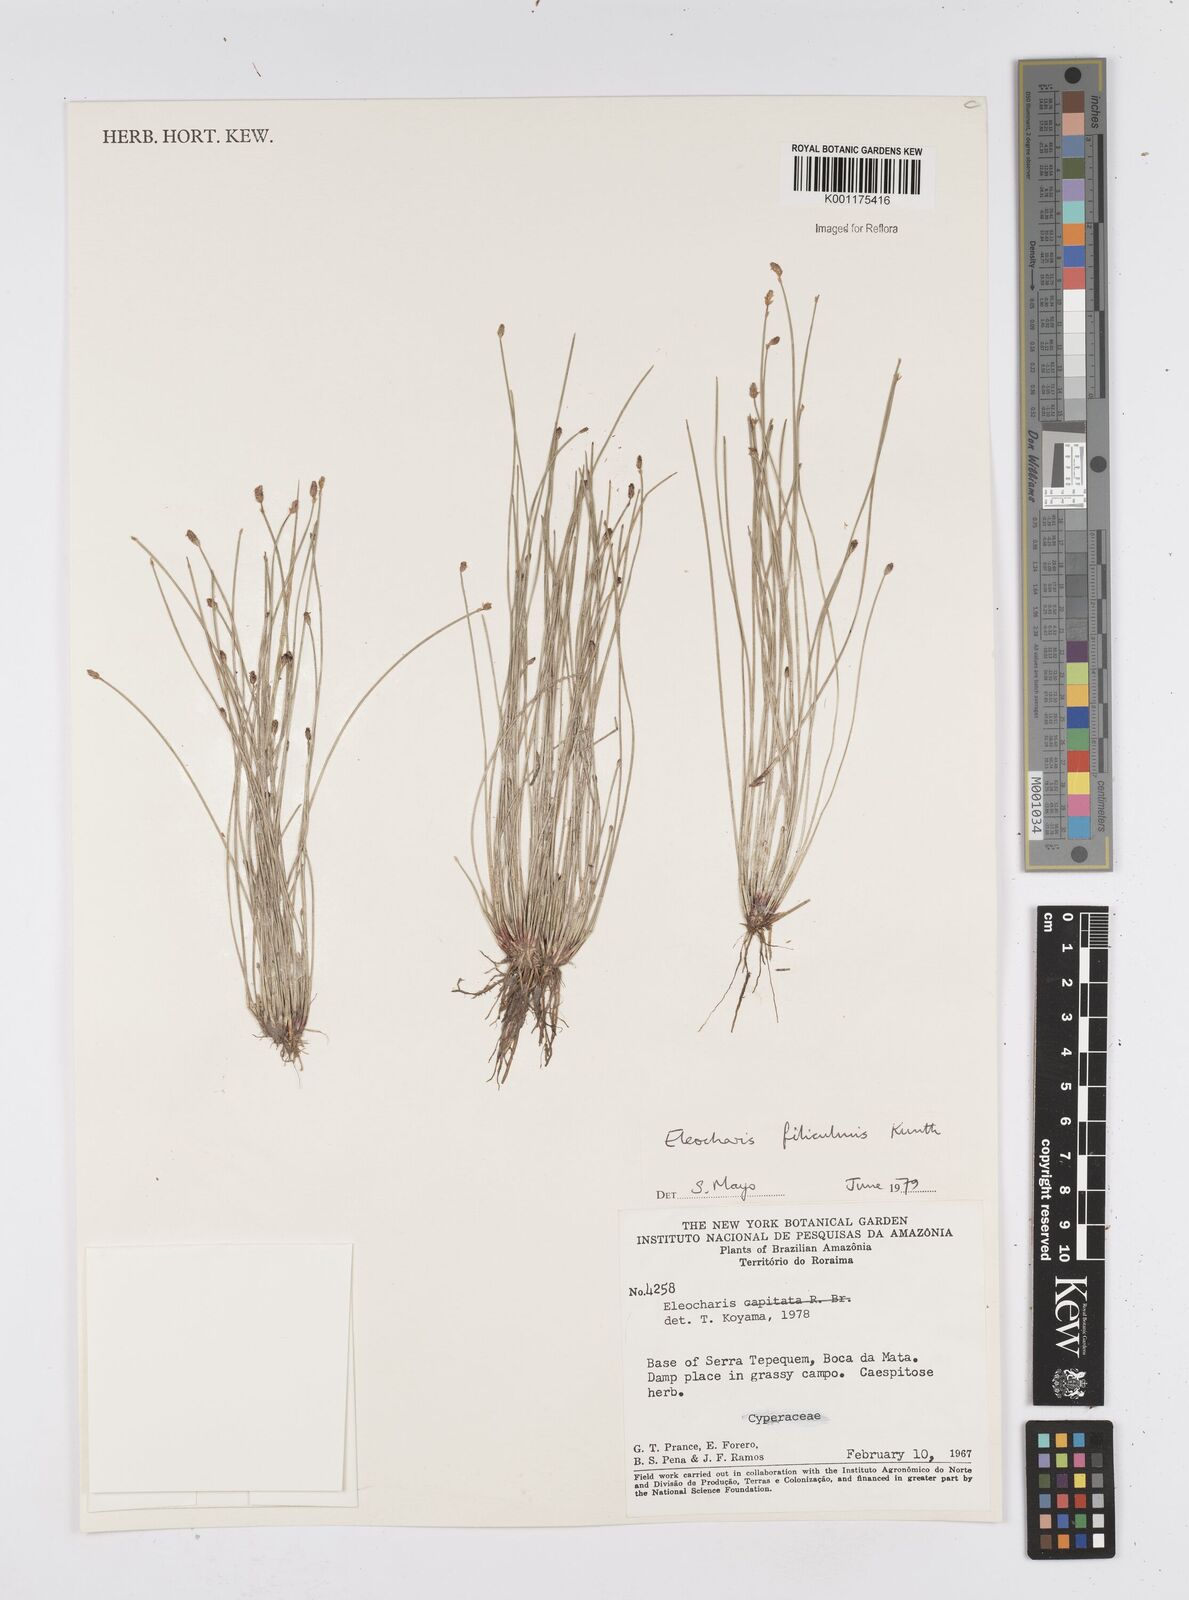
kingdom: Plantae
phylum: Tracheophyta
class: Liliopsida
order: Poales
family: Cyperaceae
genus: Eleocharis
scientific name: Eleocharis filiculmis
